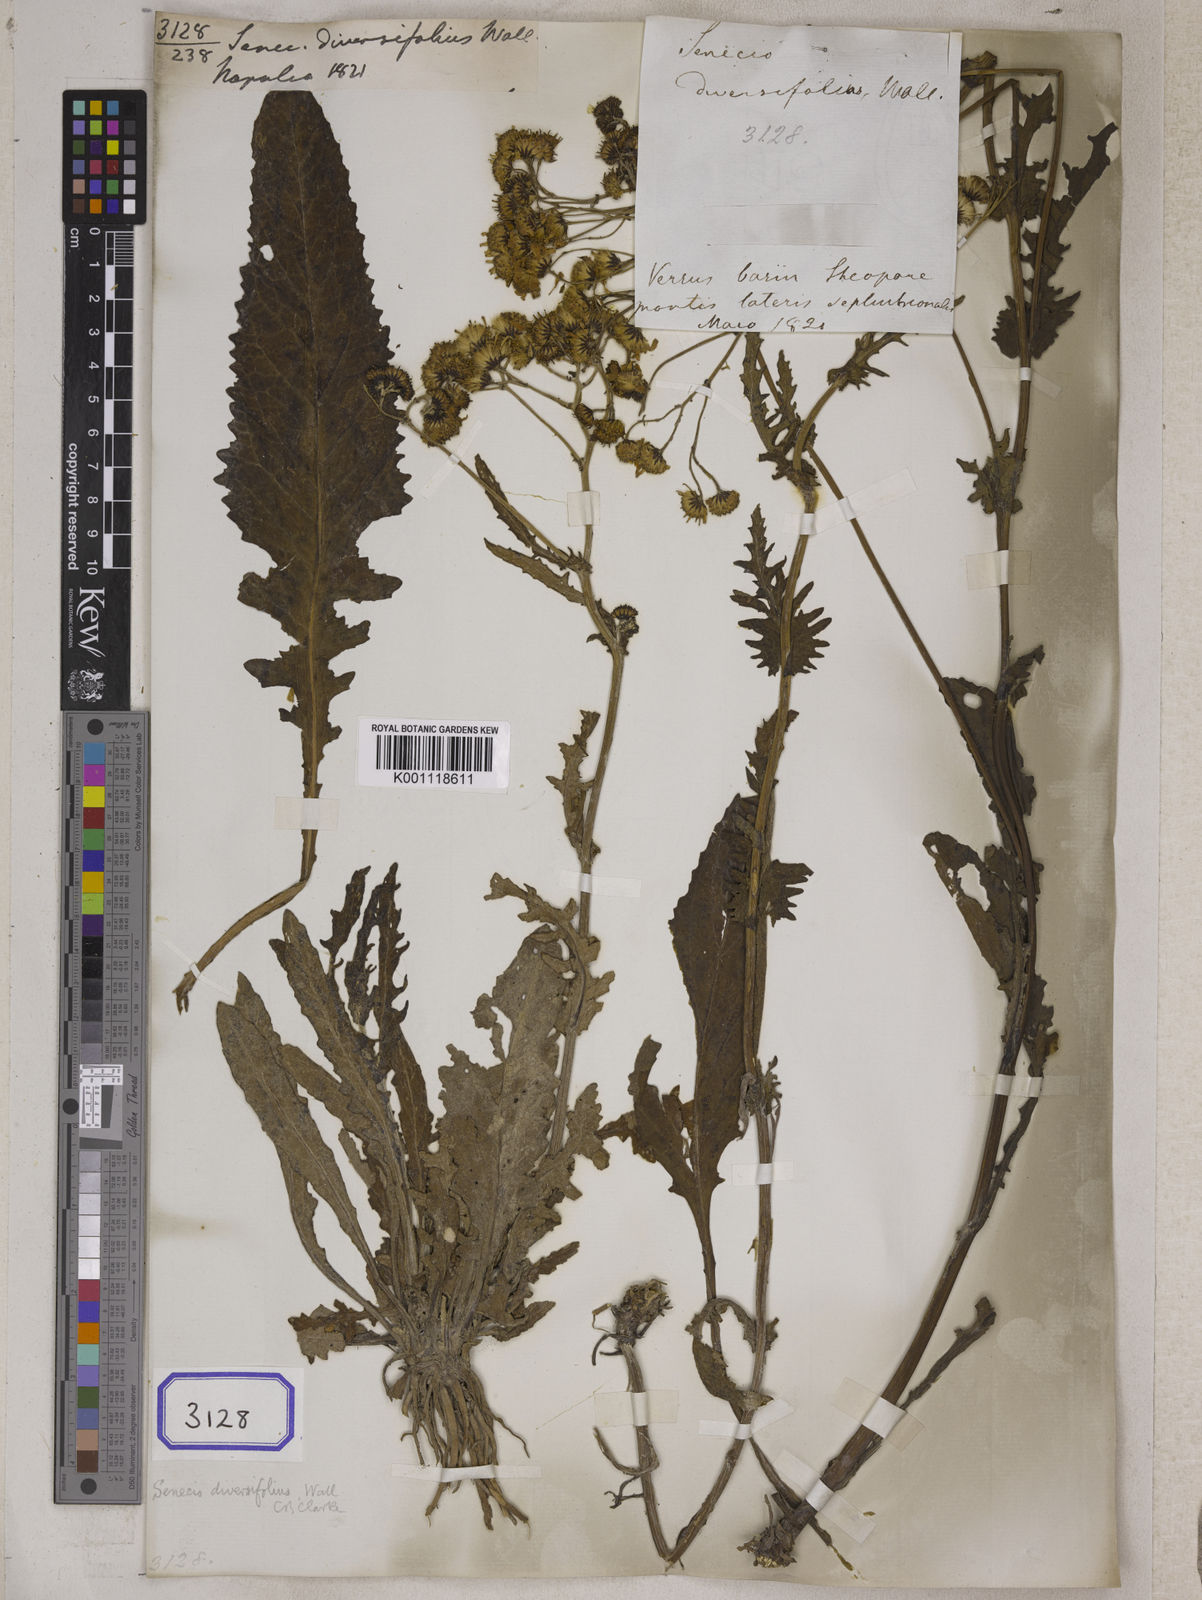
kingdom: Plantae
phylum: Tracheophyta
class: Magnoliopsida
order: Asterales
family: Asteraceae
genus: Jacobaea
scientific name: Jacobaea raphanifolia
